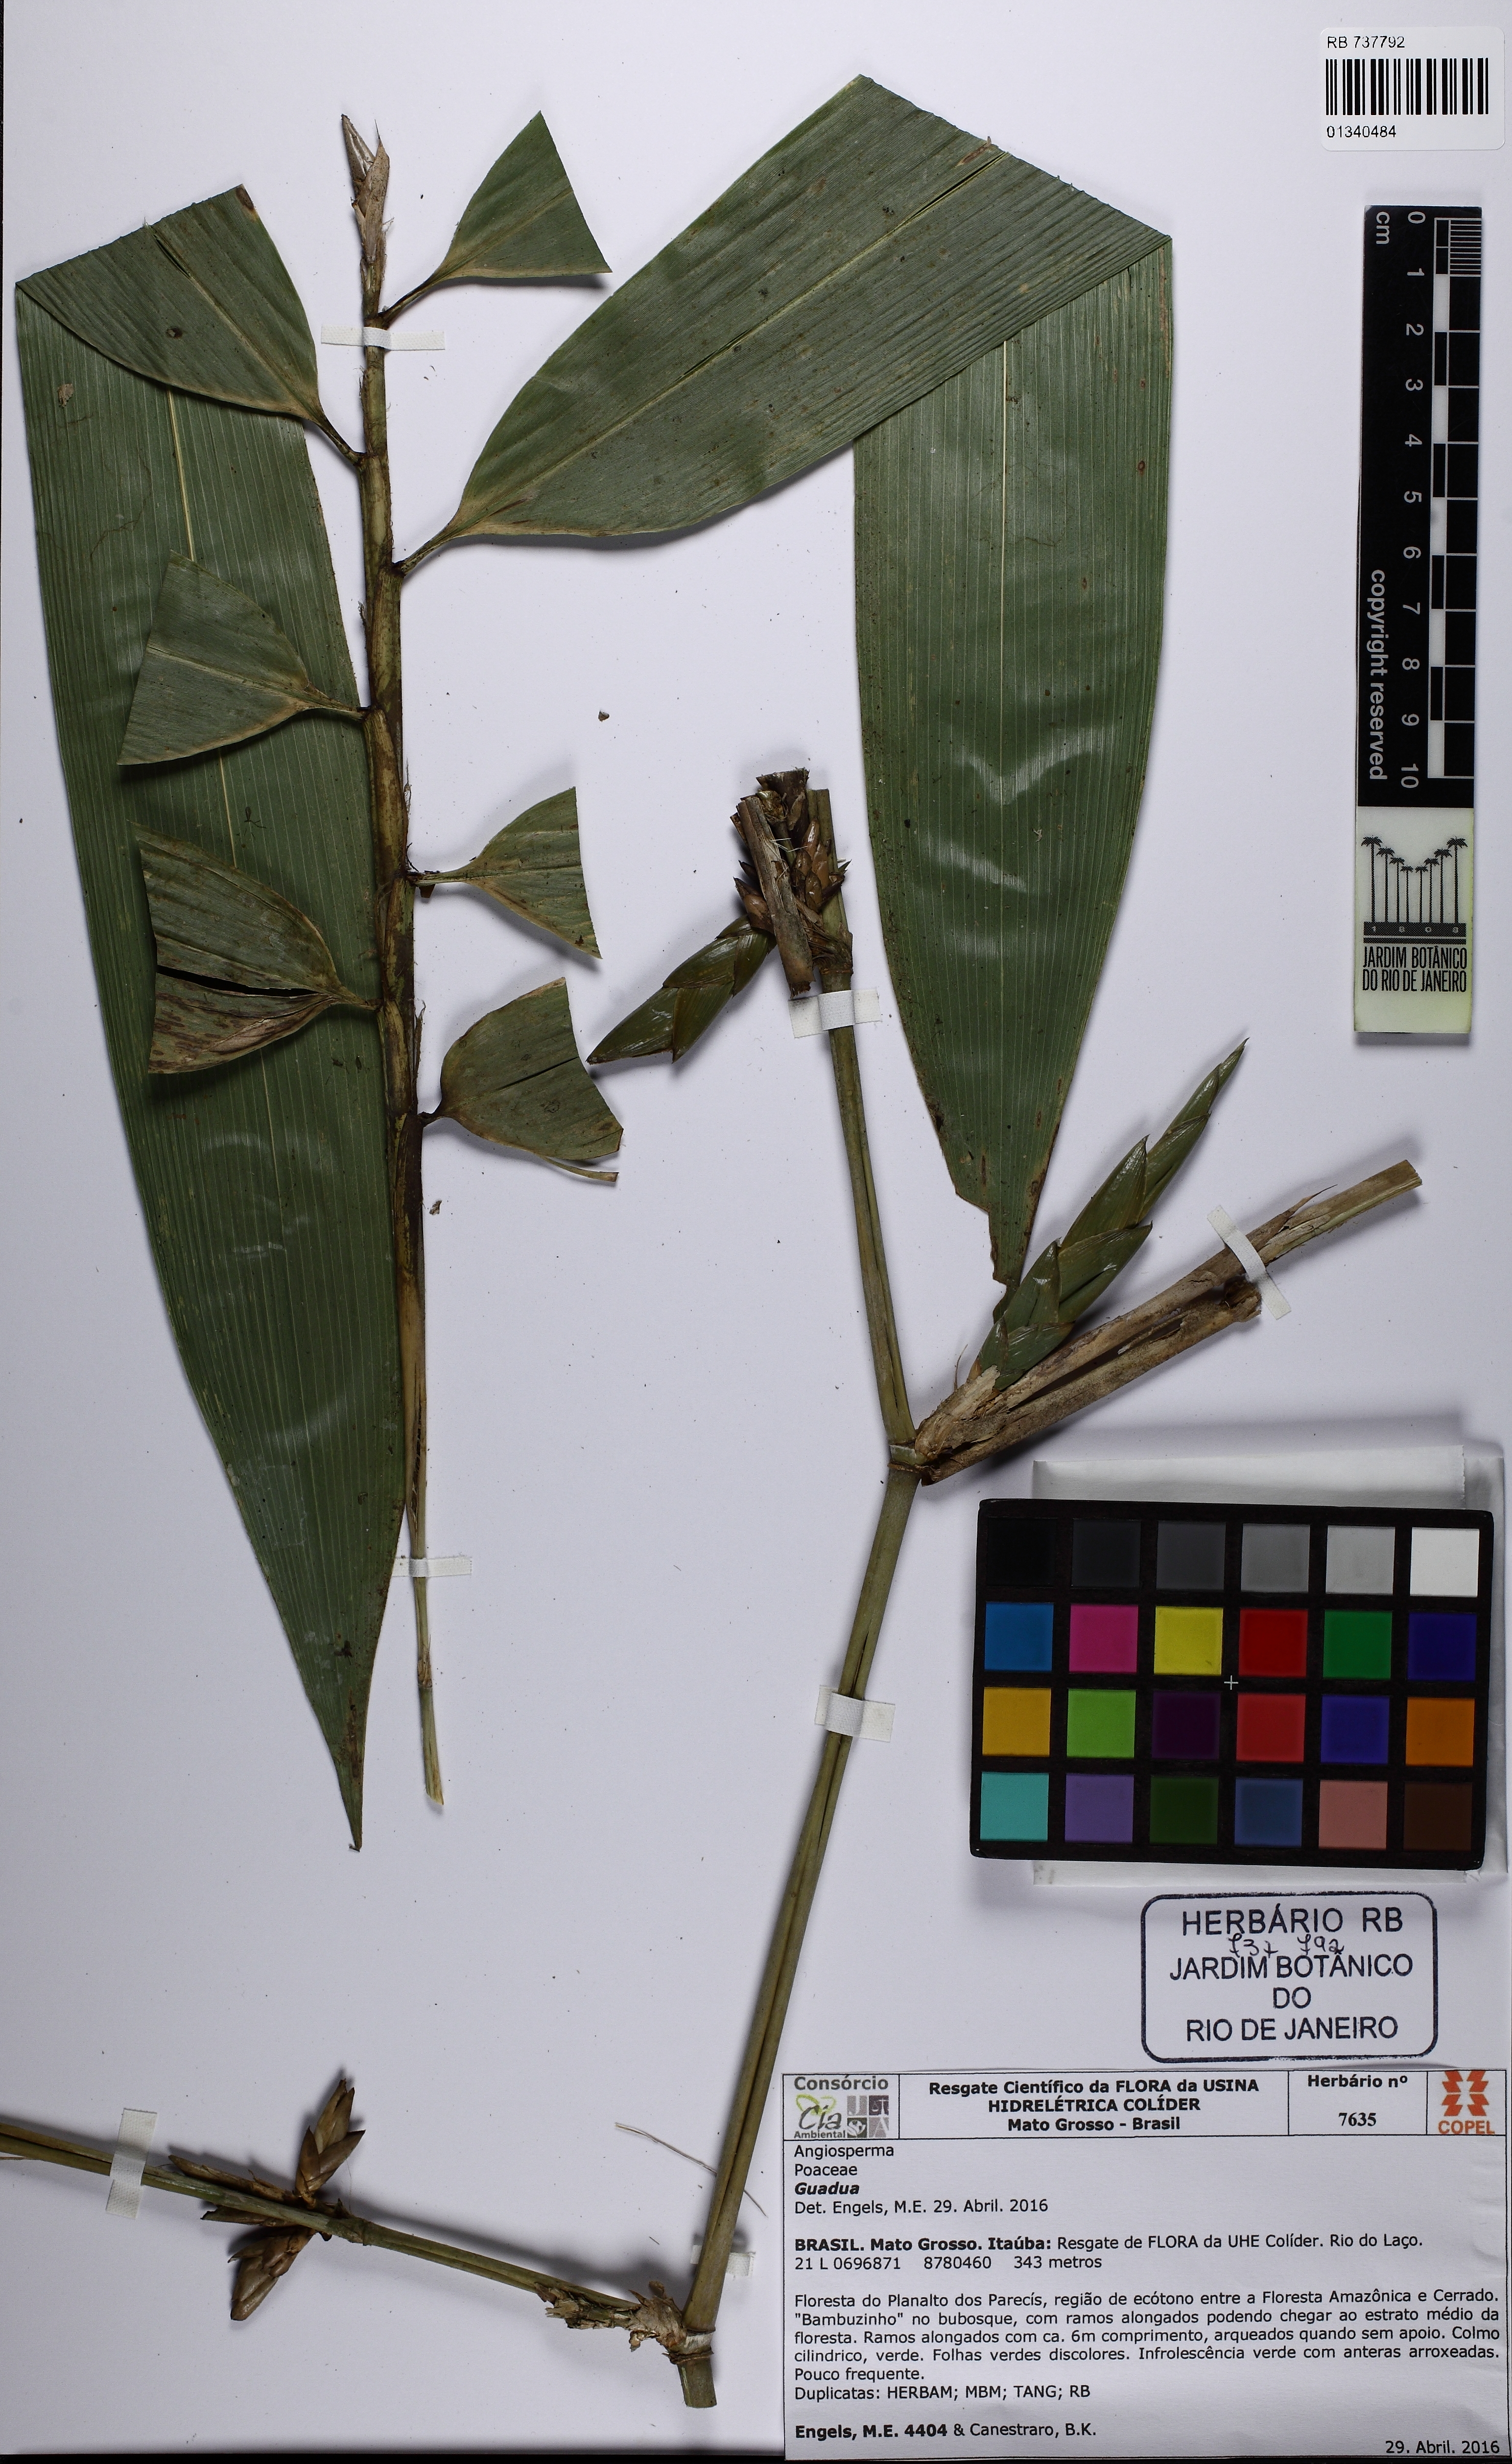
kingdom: Plantae
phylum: Tracheophyta
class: Liliopsida
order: Poales
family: Poaceae
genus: Guadua
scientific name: Guadua
